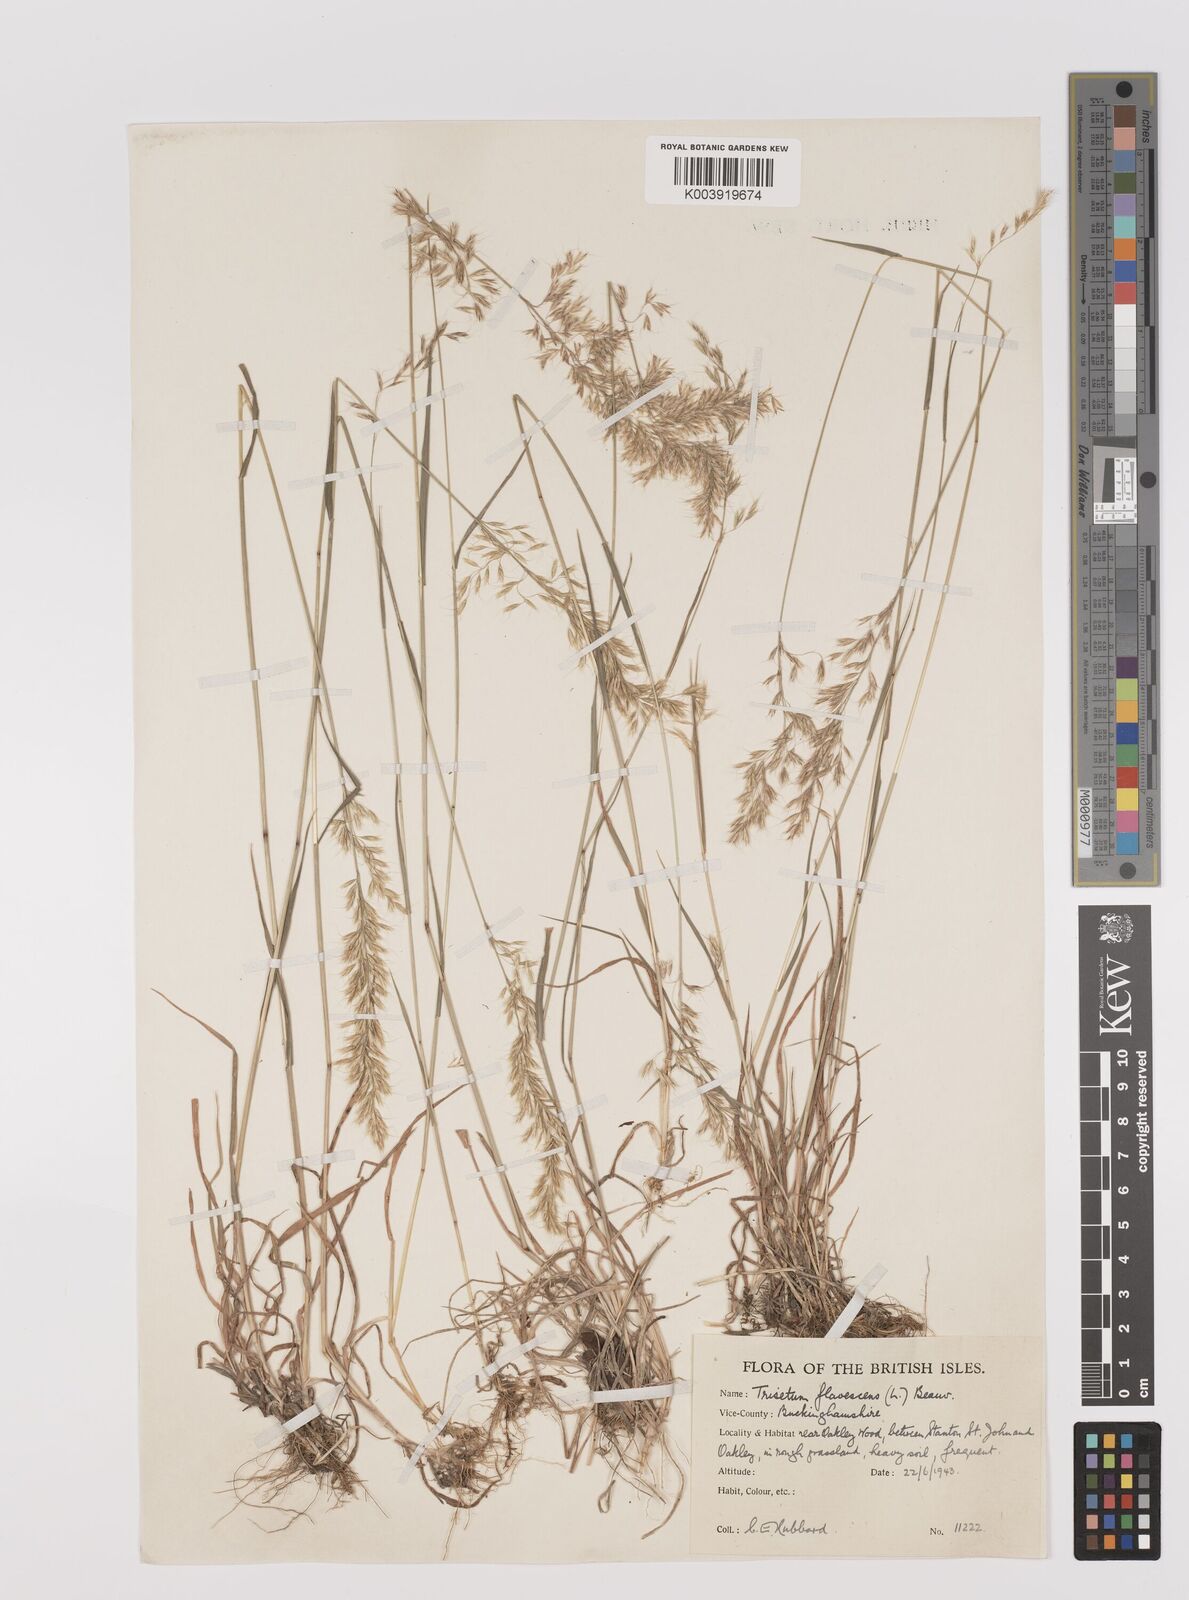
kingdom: Plantae
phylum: Tracheophyta
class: Liliopsida
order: Poales
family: Poaceae
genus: Trisetum
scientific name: Trisetum flavescens
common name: Yellow oat-grass
